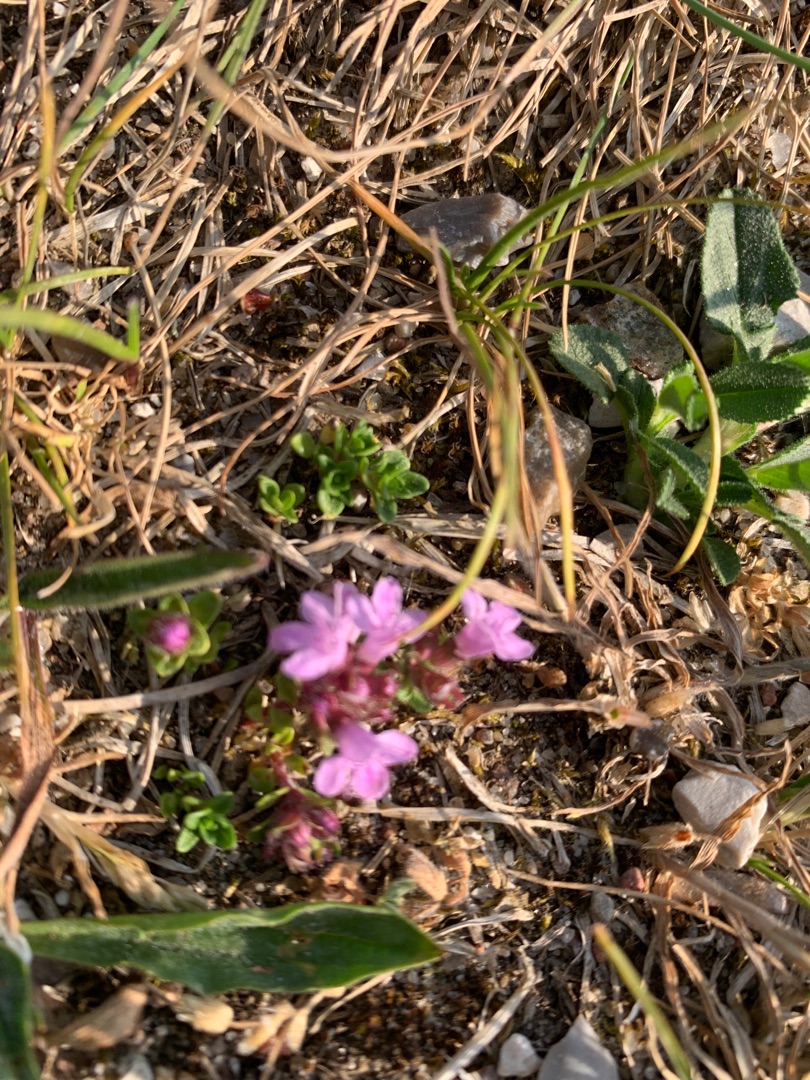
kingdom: Plantae
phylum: Tracheophyta
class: Magnoliopsida
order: Lamiales
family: Lamiaceae
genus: Thymus
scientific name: Thymus serpyllum
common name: Smalbladet timian
